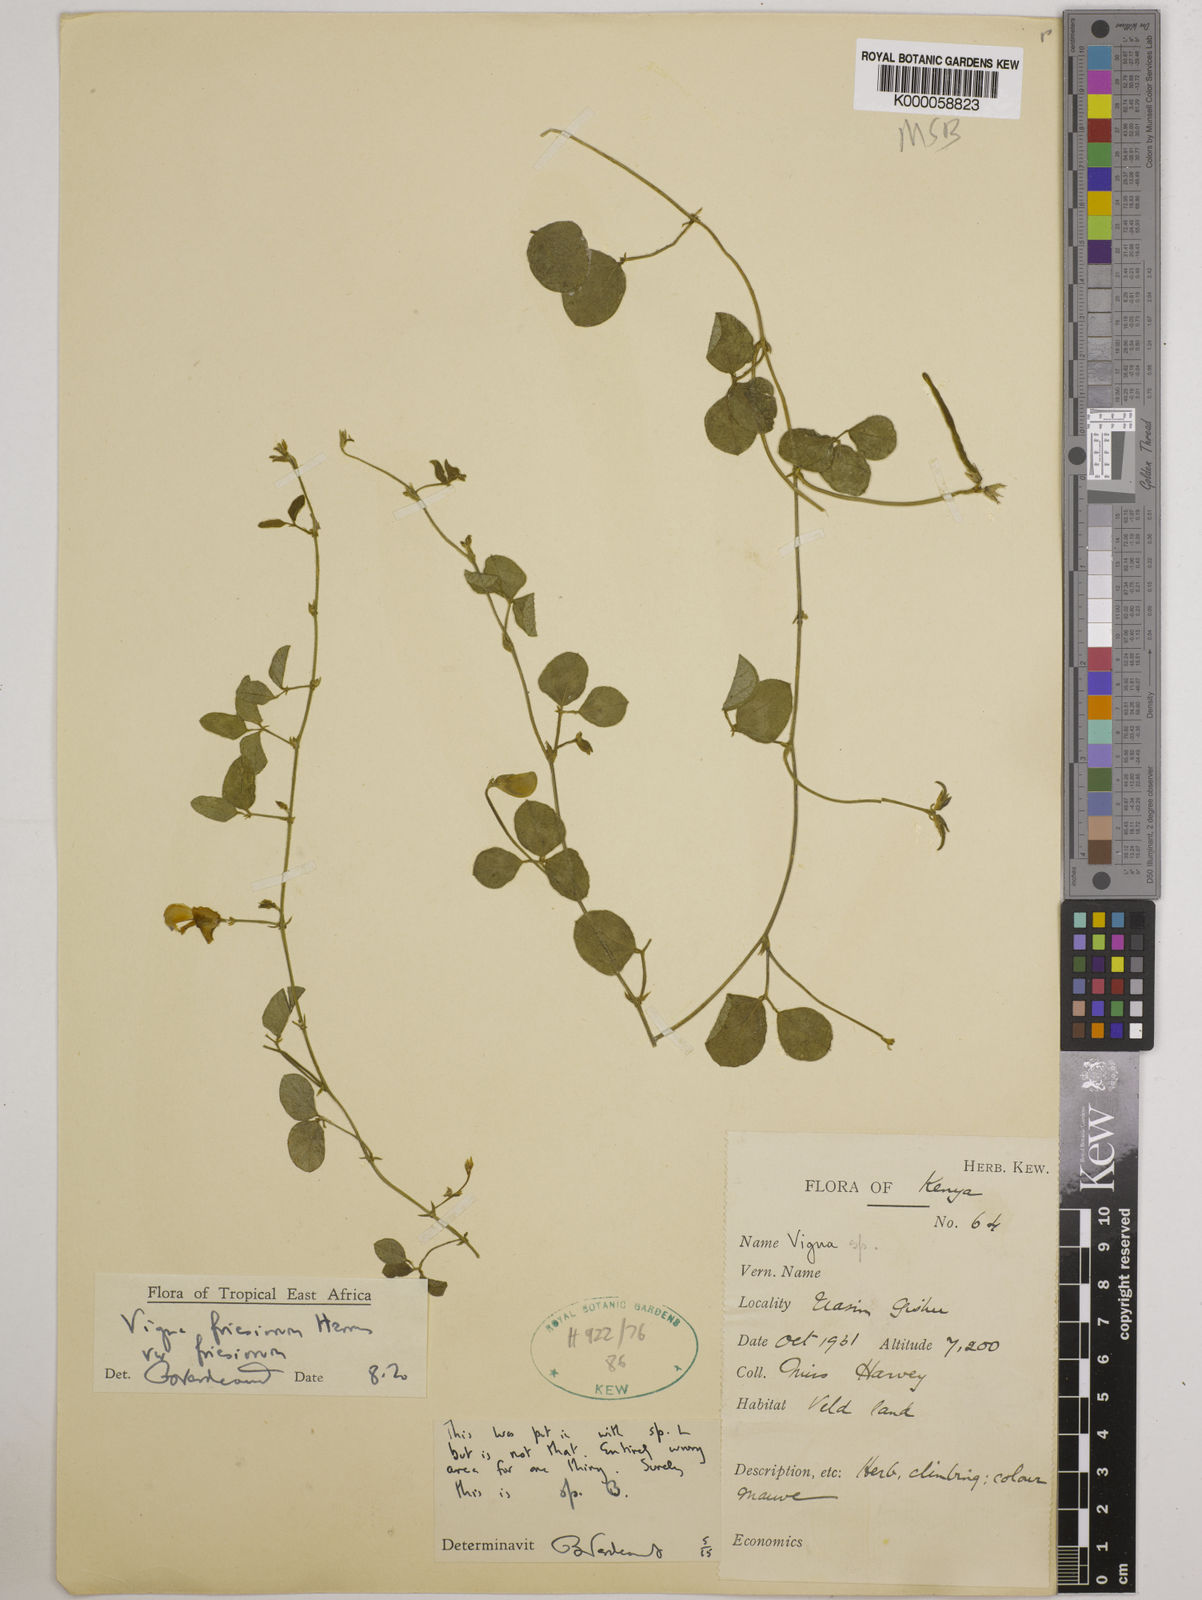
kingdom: Plantae
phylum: Tracheophyta
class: Magnoliopsida
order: Fabales
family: Fabaceae
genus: Vigna
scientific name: Vigna friesiorum
